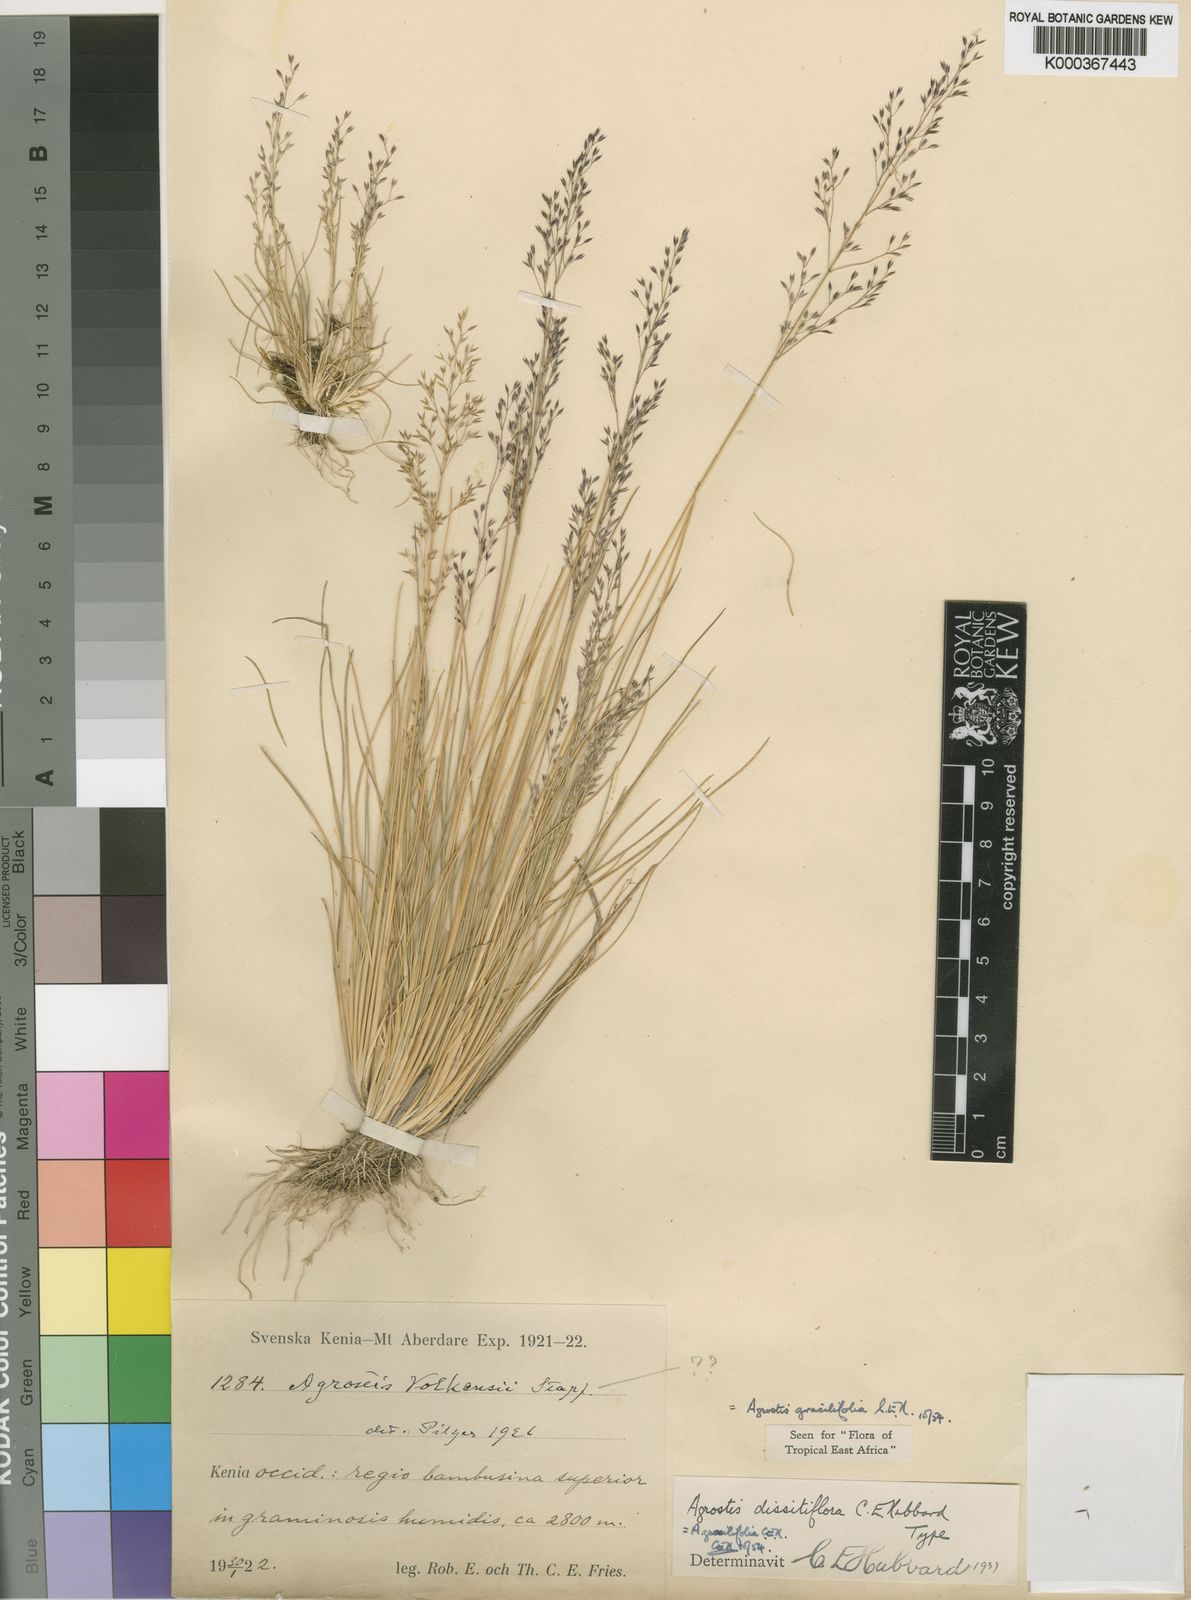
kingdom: Plantae
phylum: Tracheophyta
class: Liliopsida
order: Poales
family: Poaceae
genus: Agrostis
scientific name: Agrostis gracilifolia
